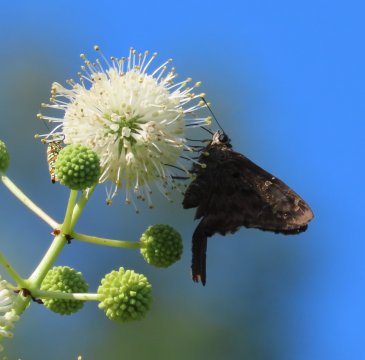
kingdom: Animalia
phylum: Arthropoda
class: Insecta
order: Lepidoptera
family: Hesperiidae
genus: Urbanus
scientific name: Urbanus proteus
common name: Long-tailed Skipper
